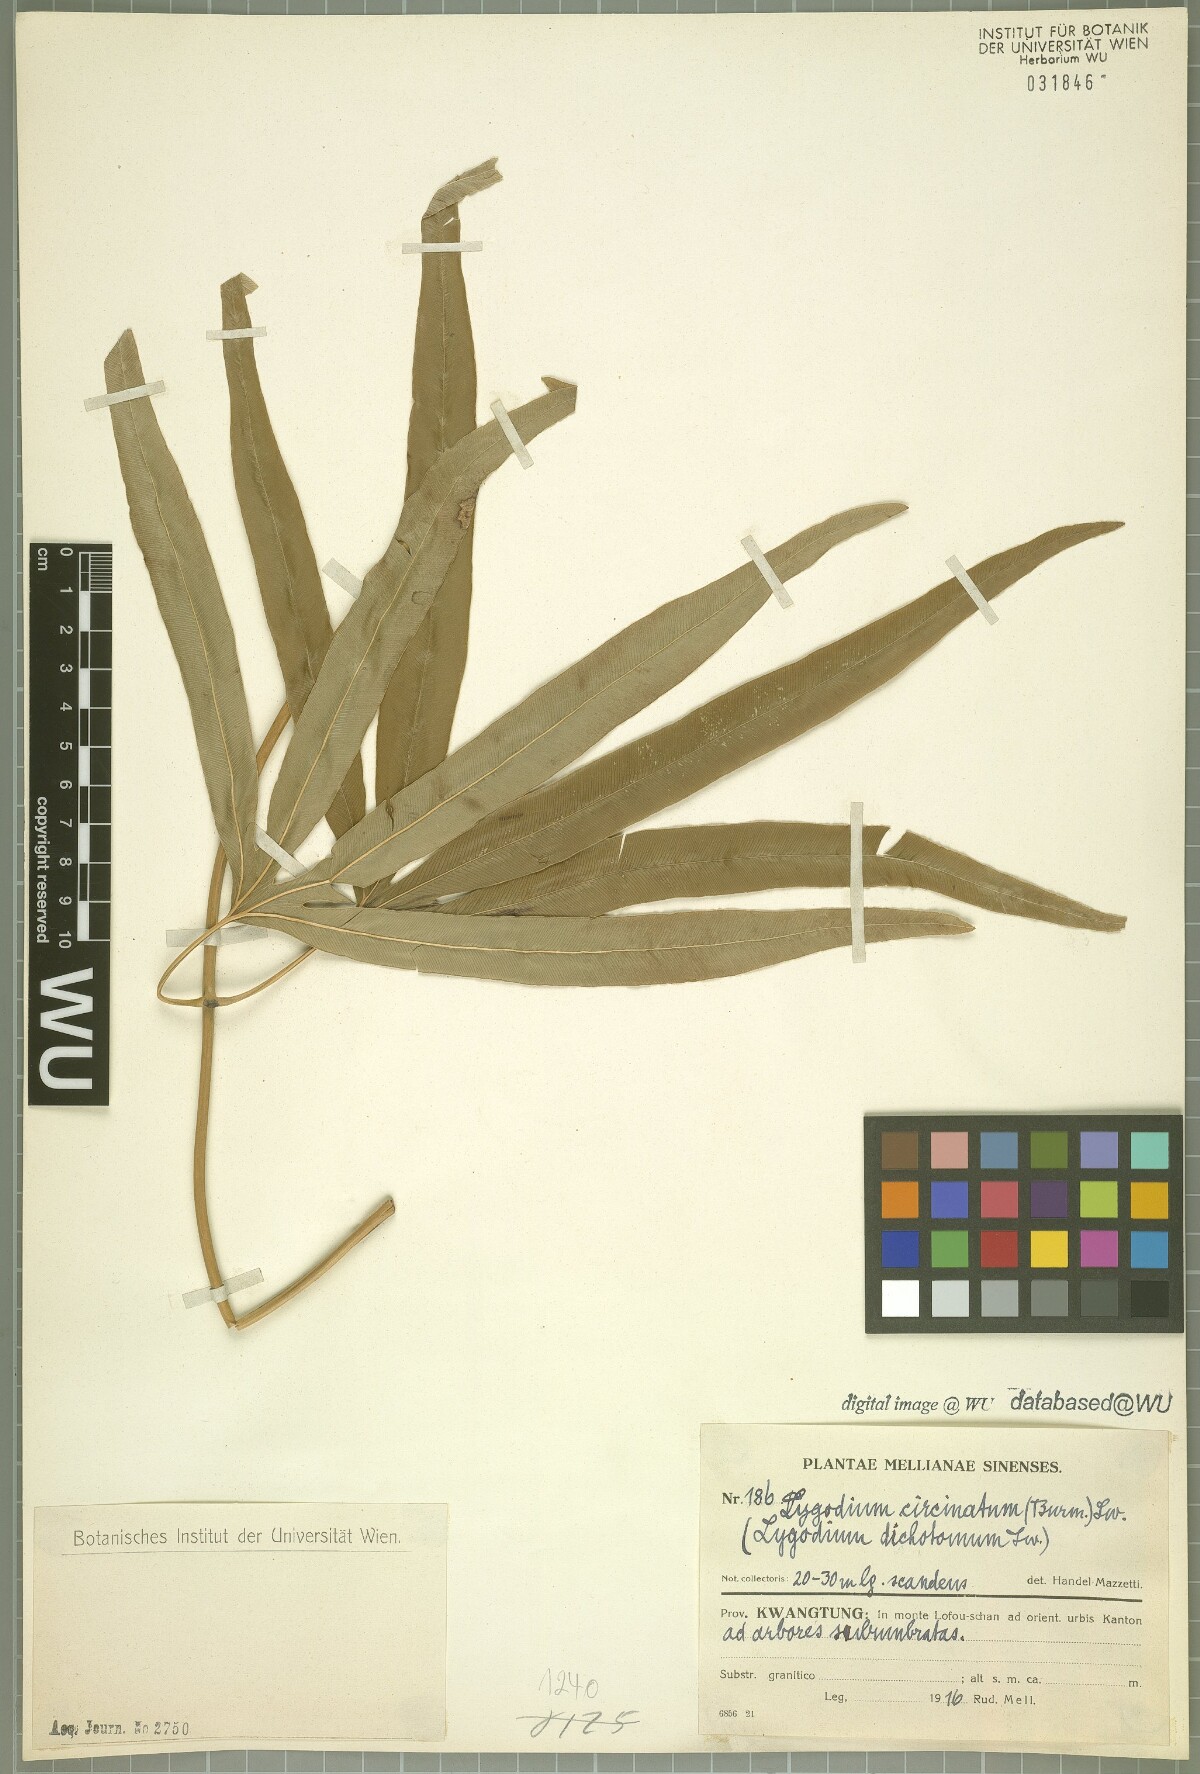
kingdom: Plantae
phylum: Tracheophyta
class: Polypodiopsida
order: Schizaeales
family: Lygodiaceae
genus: Lygodium
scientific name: Lygodium circinnatum
